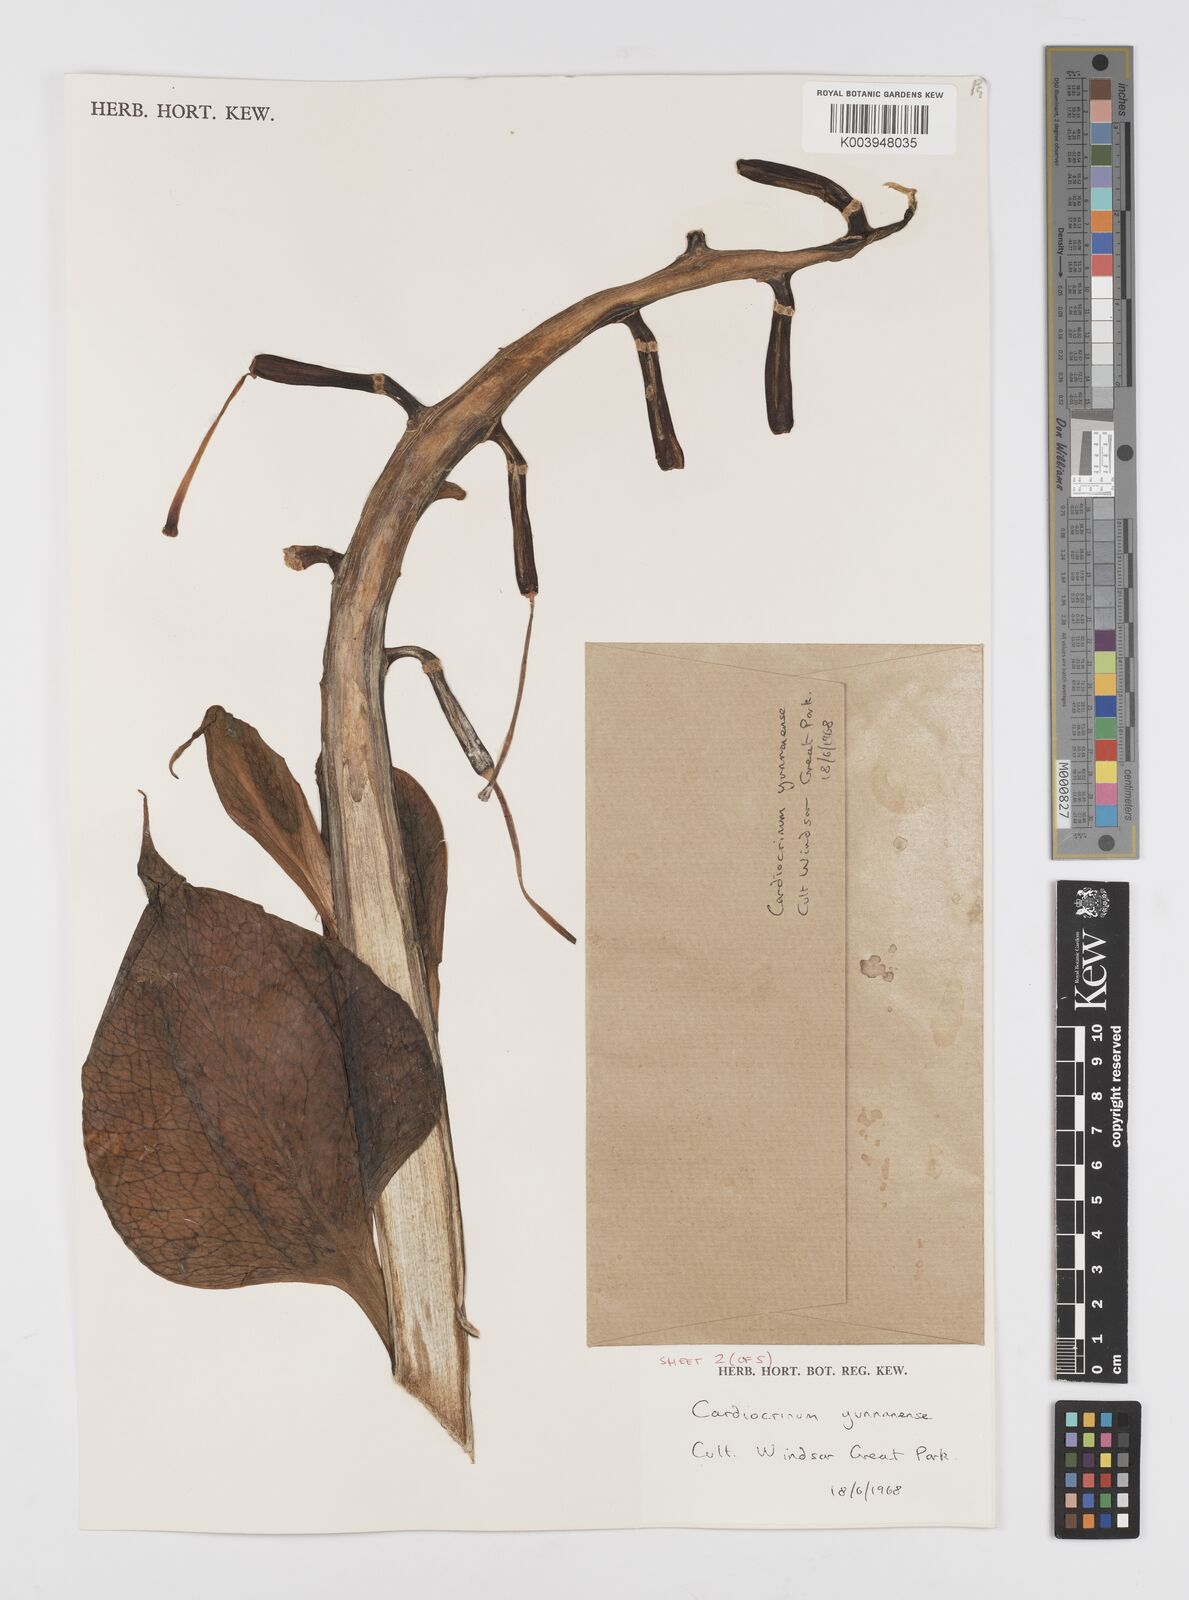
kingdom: Plantae
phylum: Tracheophyta
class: Liliopsida
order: Liliales
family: Liliaceae
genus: Cardiocrinum
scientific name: Cardiocrinum
